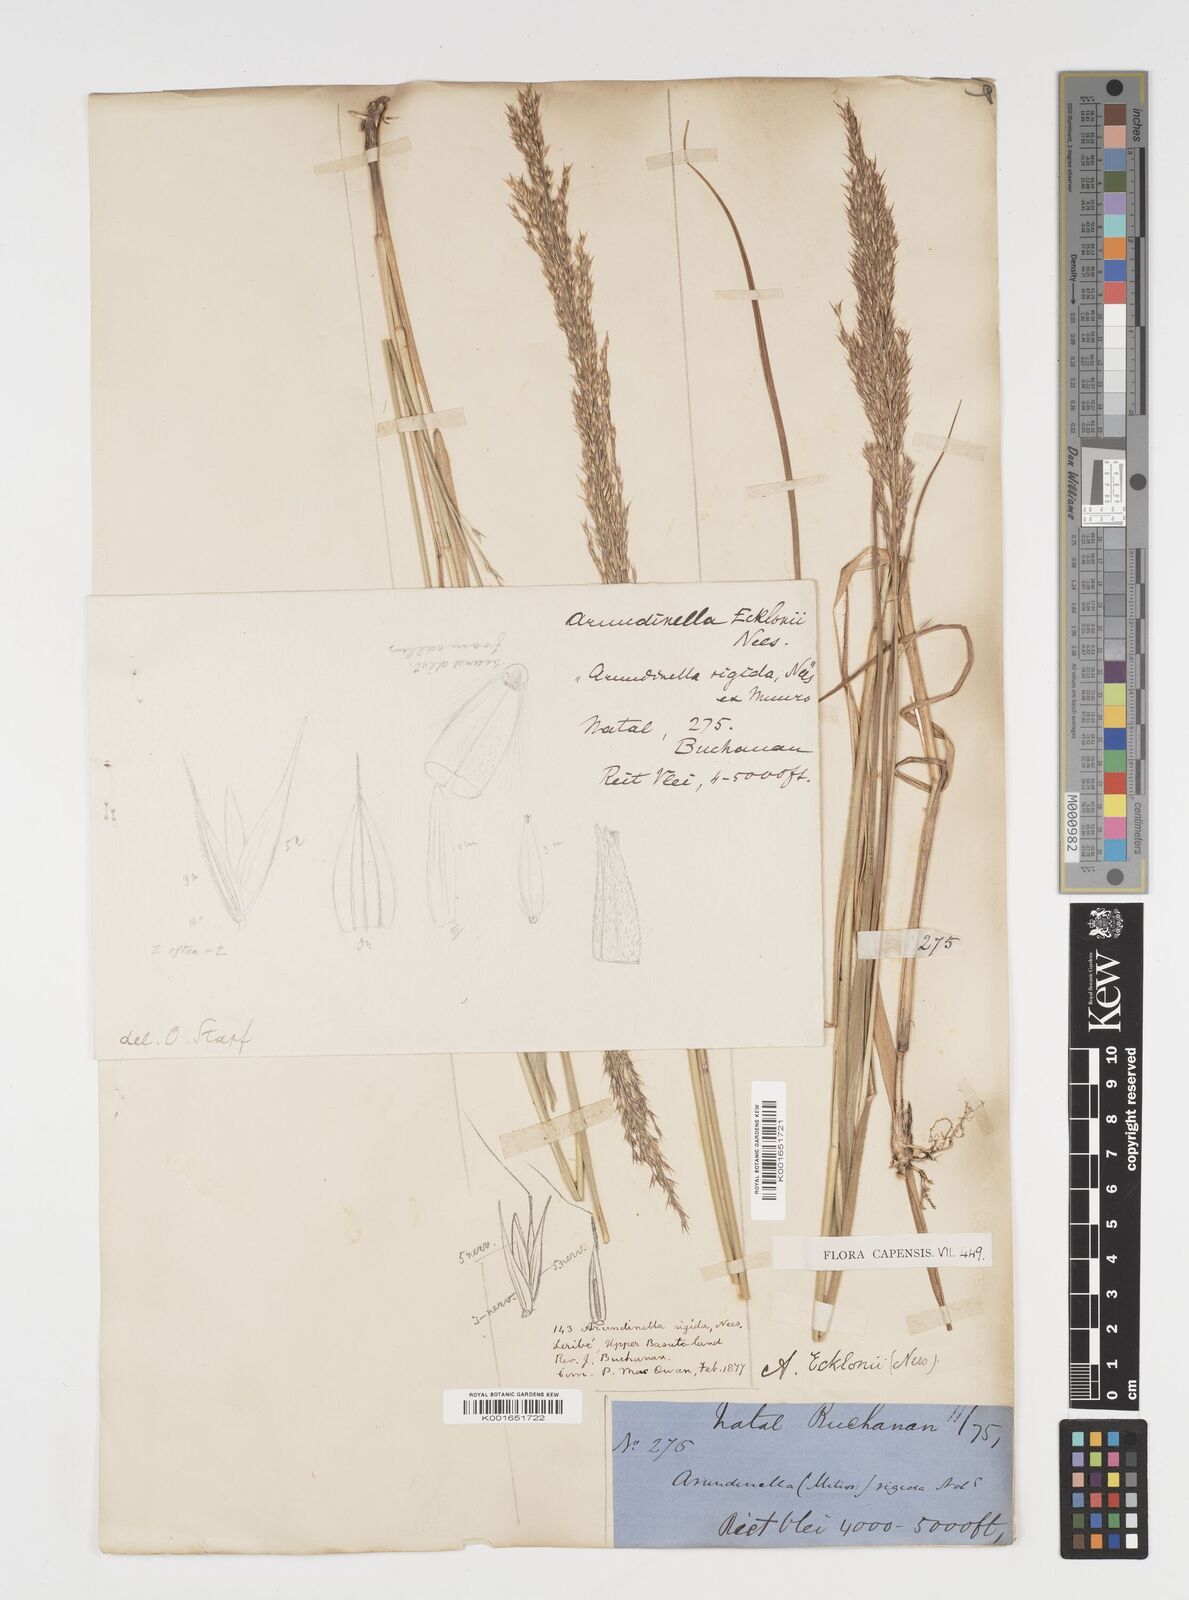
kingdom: Plantae
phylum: Tracheophyta
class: Liliopsida
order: Poales
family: Poaceae
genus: Arundinella
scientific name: Arundinella nepalensis
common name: Reed grass
